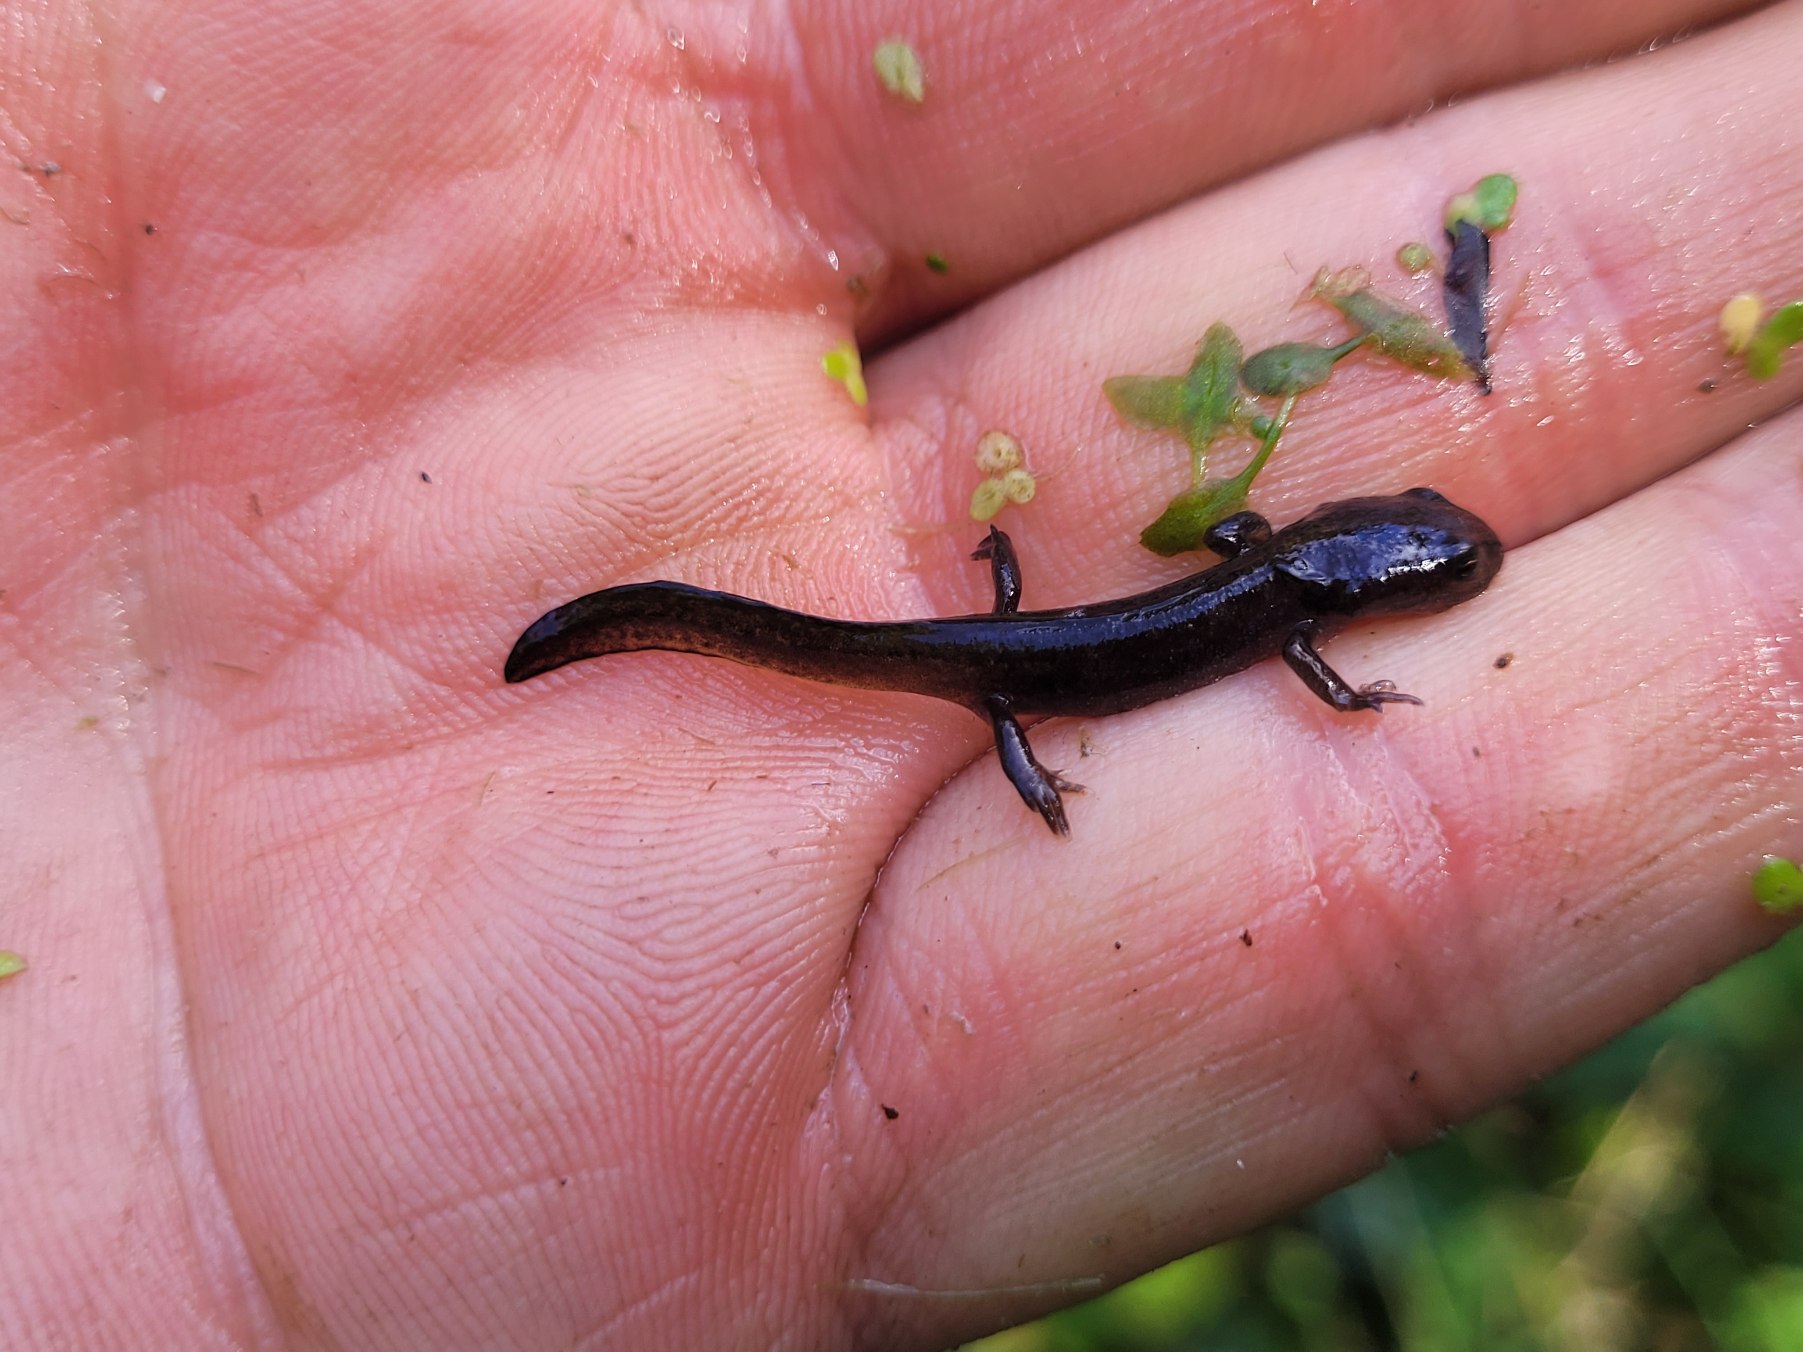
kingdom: Animalia
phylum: Chordata
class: Amphibia
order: Caudata
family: Salamandridae
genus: Ichthyosaura
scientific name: Ichthyosaura alpestris
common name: Bjergsalamander
